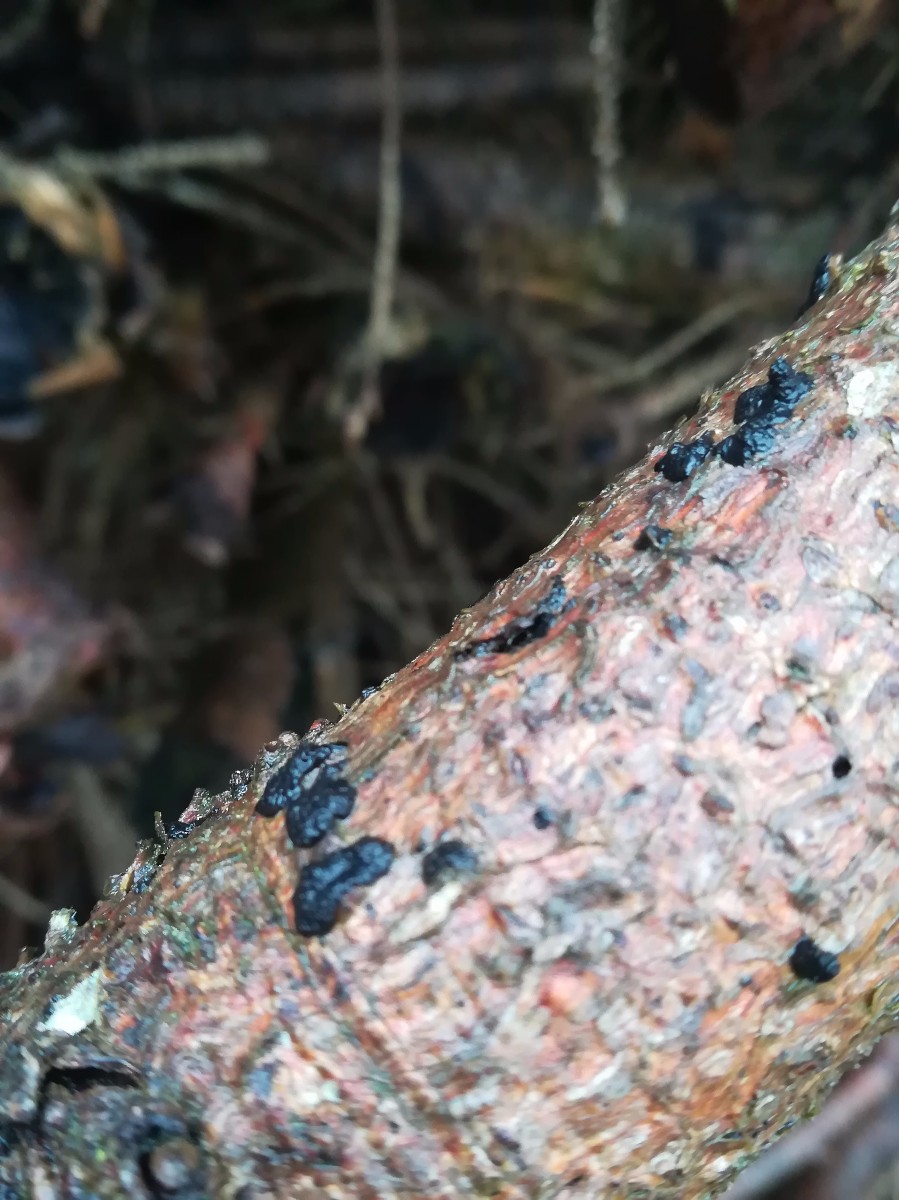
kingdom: Fungi
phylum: Basidiomycota
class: Agaricomycetes
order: Auriculariales
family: Auriculariaceae
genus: Exidia
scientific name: Exidia pithya
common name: gran-bævretop
